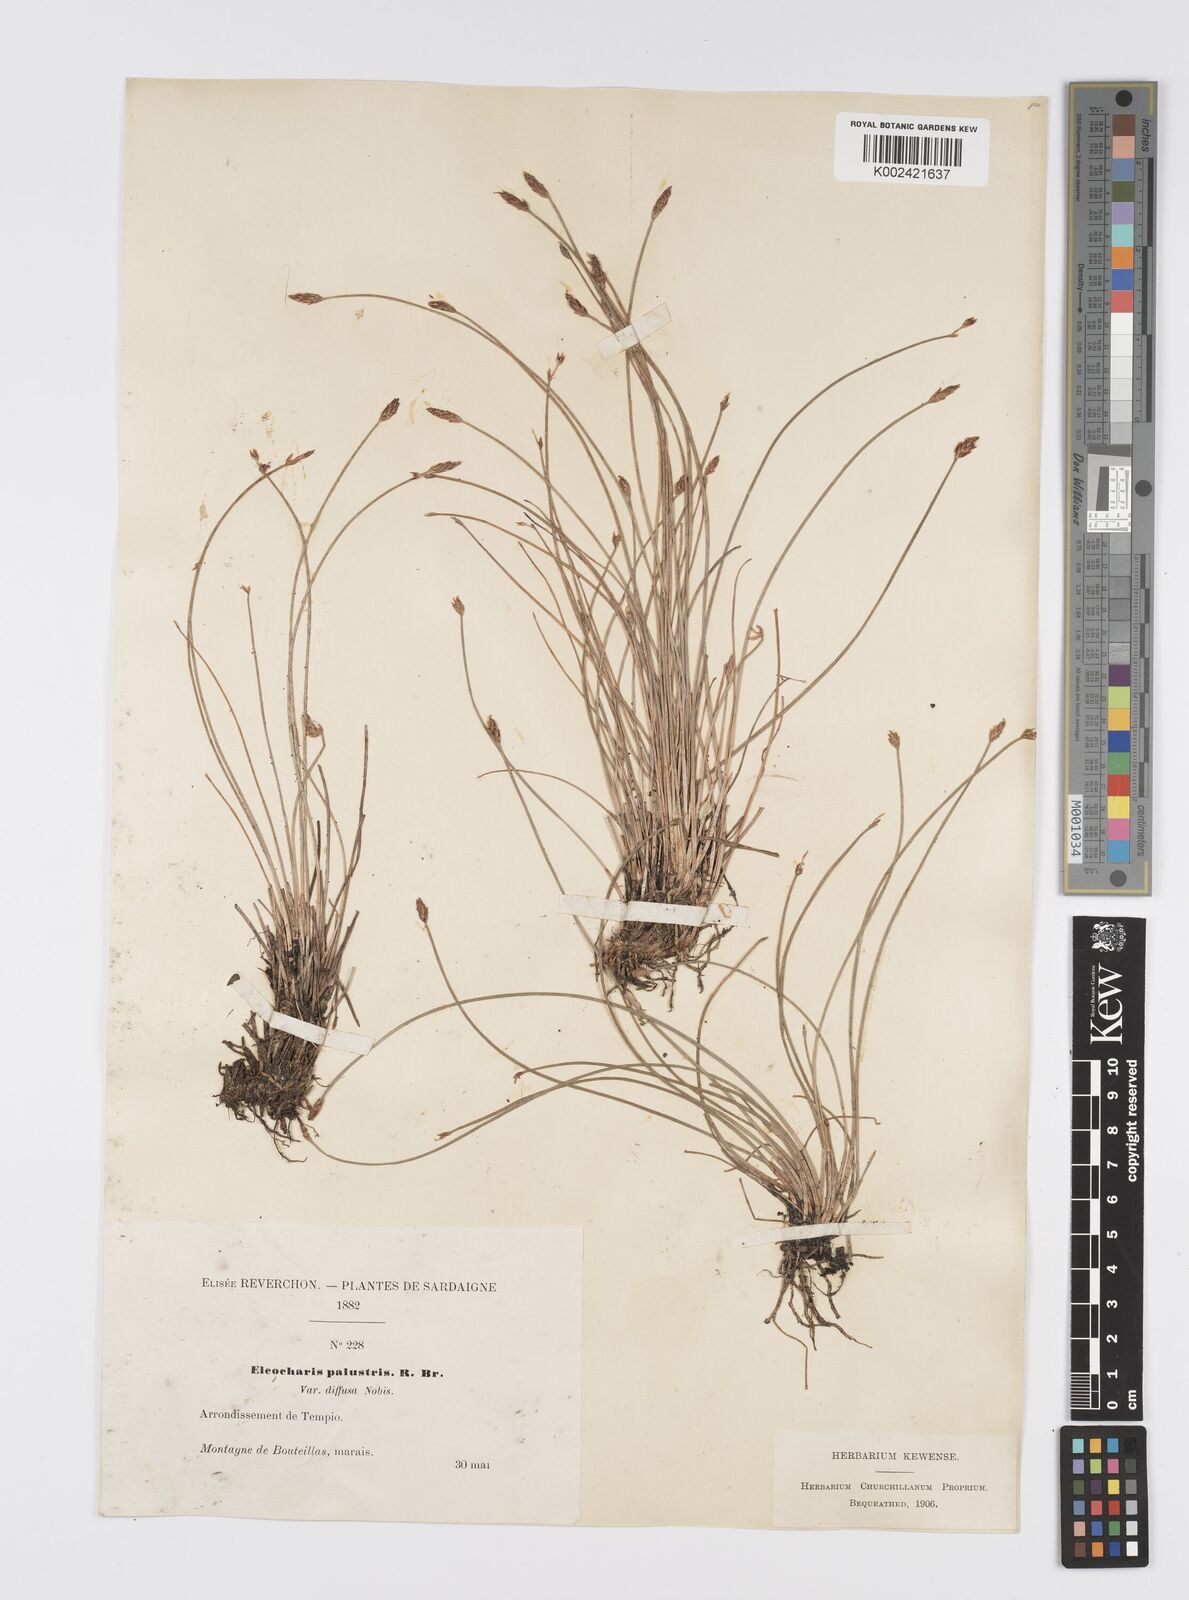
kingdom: Plantae
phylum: Tracheophyta
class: Liliopsida
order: Poales
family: Cyperaceae
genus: Eleocharis
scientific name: Eleocharis multicaulis
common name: Many-stalked spike-rush
